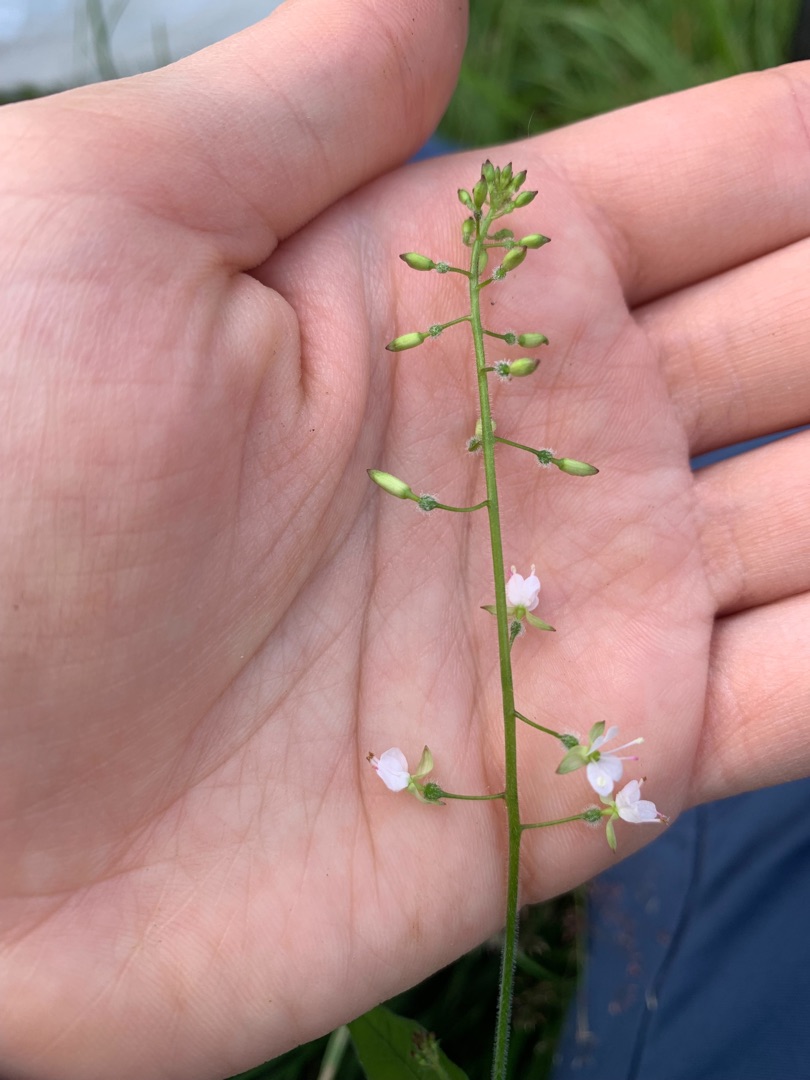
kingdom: Plantae
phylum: Tracheophyta
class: Magnoliopsida
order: Myrtales
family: Onagraceae
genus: Circaea
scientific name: Circaea lutetiana
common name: Dunet steffensurt
